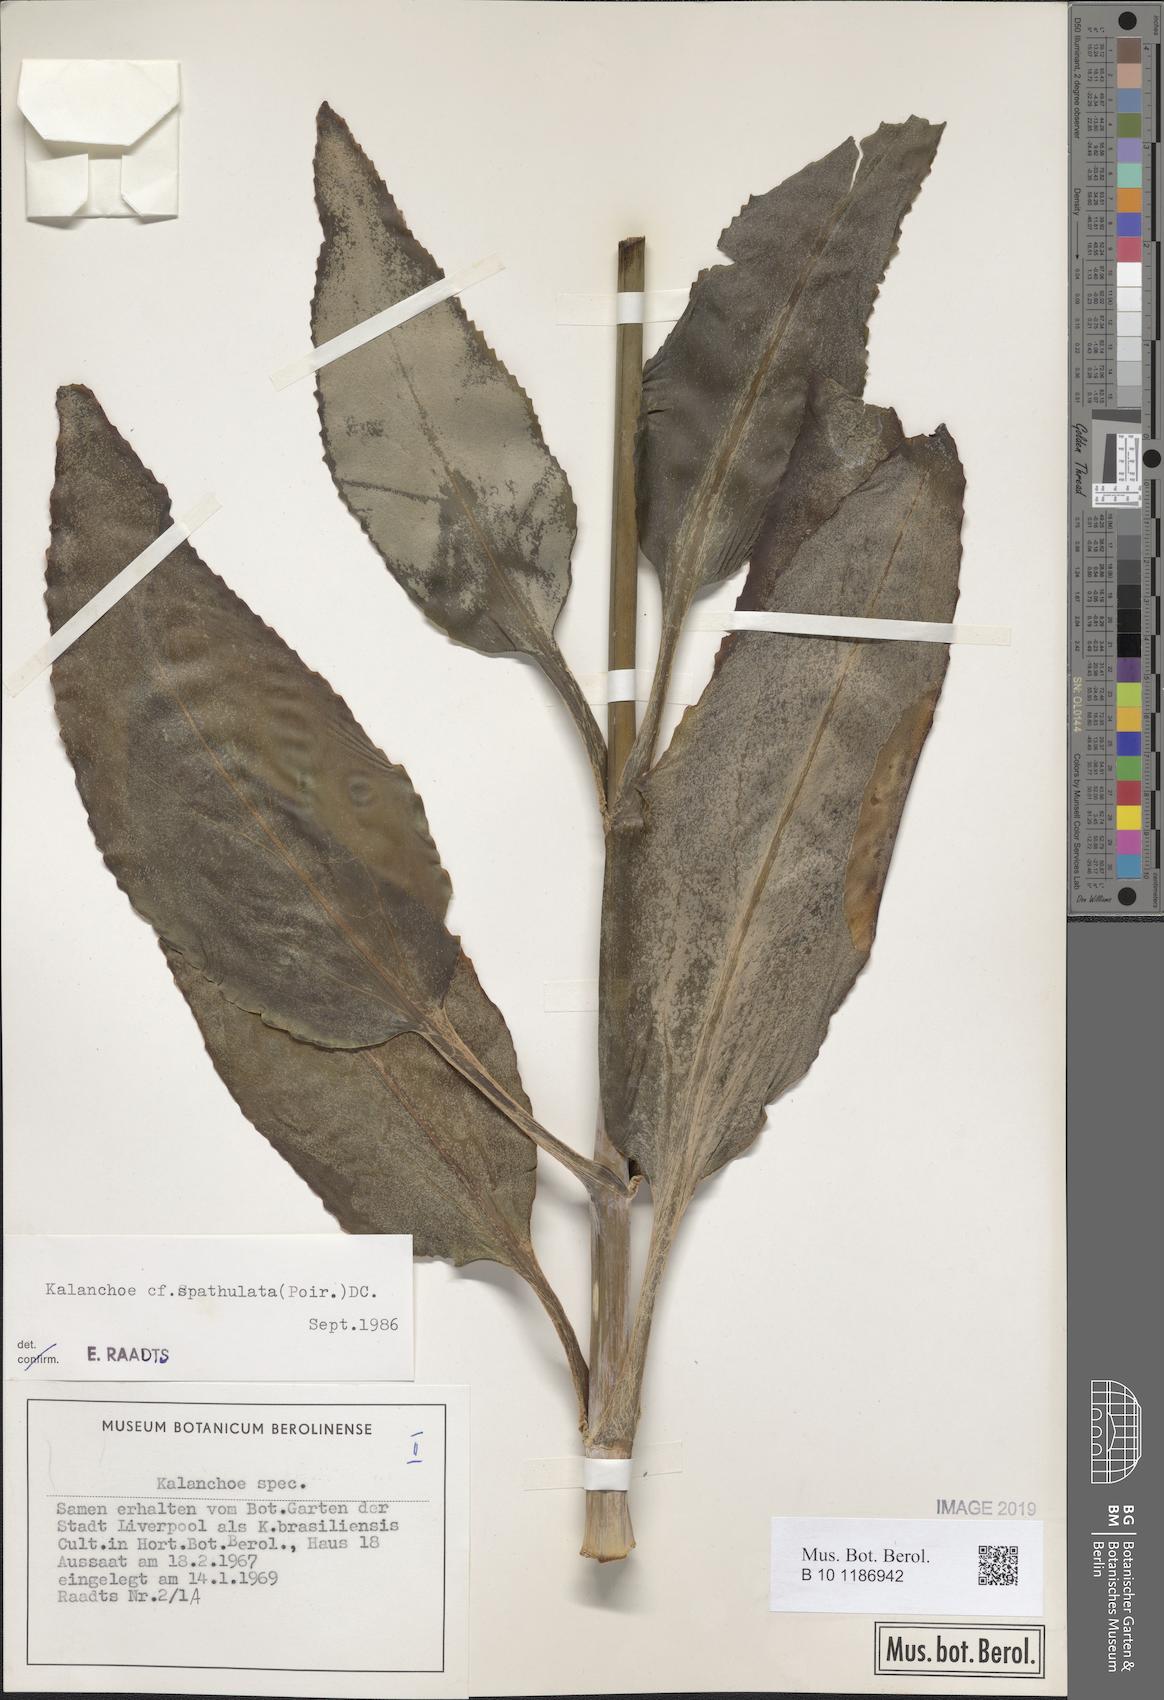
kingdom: Plantae
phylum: Tracheophyta
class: Magnoliopsida
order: Saxifragales
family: Crassulaceae
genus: Kalanchoe
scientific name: Kalanchoe integra
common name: Neverdie
